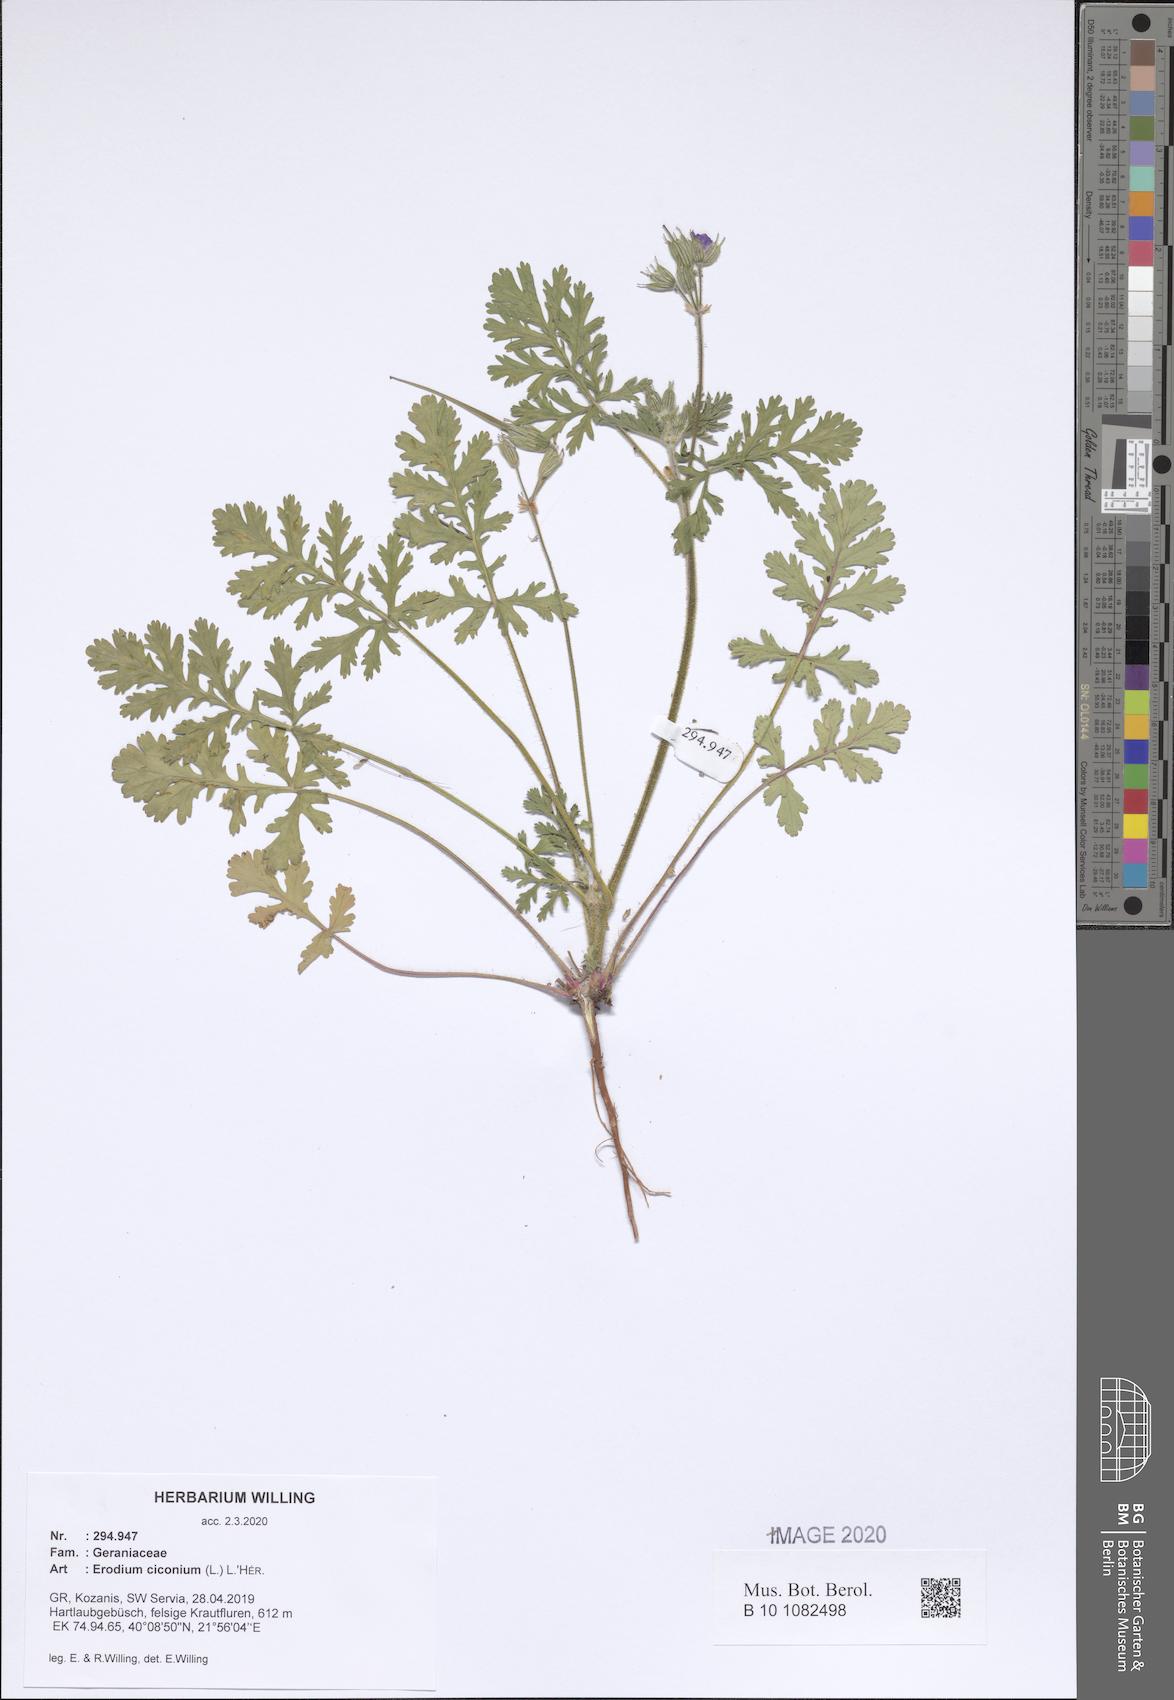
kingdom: Plantae
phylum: Tracheophyta
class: Magnoliopsida
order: Geraniales
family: Geraniaceae
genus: Erodium
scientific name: Erodium ciconium
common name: Common stork's bill
